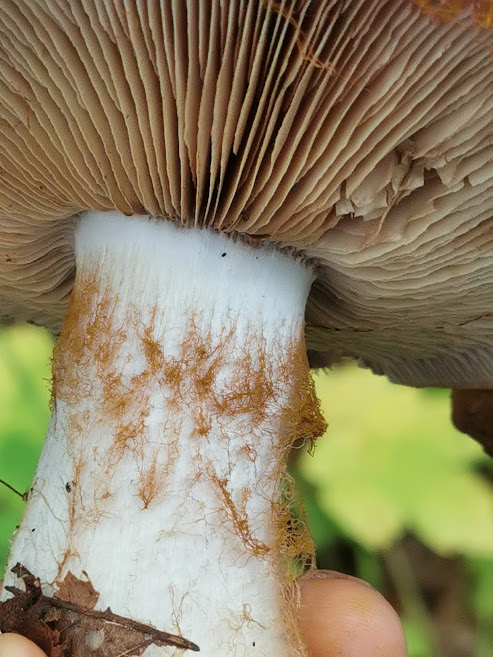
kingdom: Fungi
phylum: Basidiomycota
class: Agaricomycetes
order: Agaricales
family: Cortinariaceae
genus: Cortinarius
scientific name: Cortinarius anserinus
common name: bøge-slørhat
